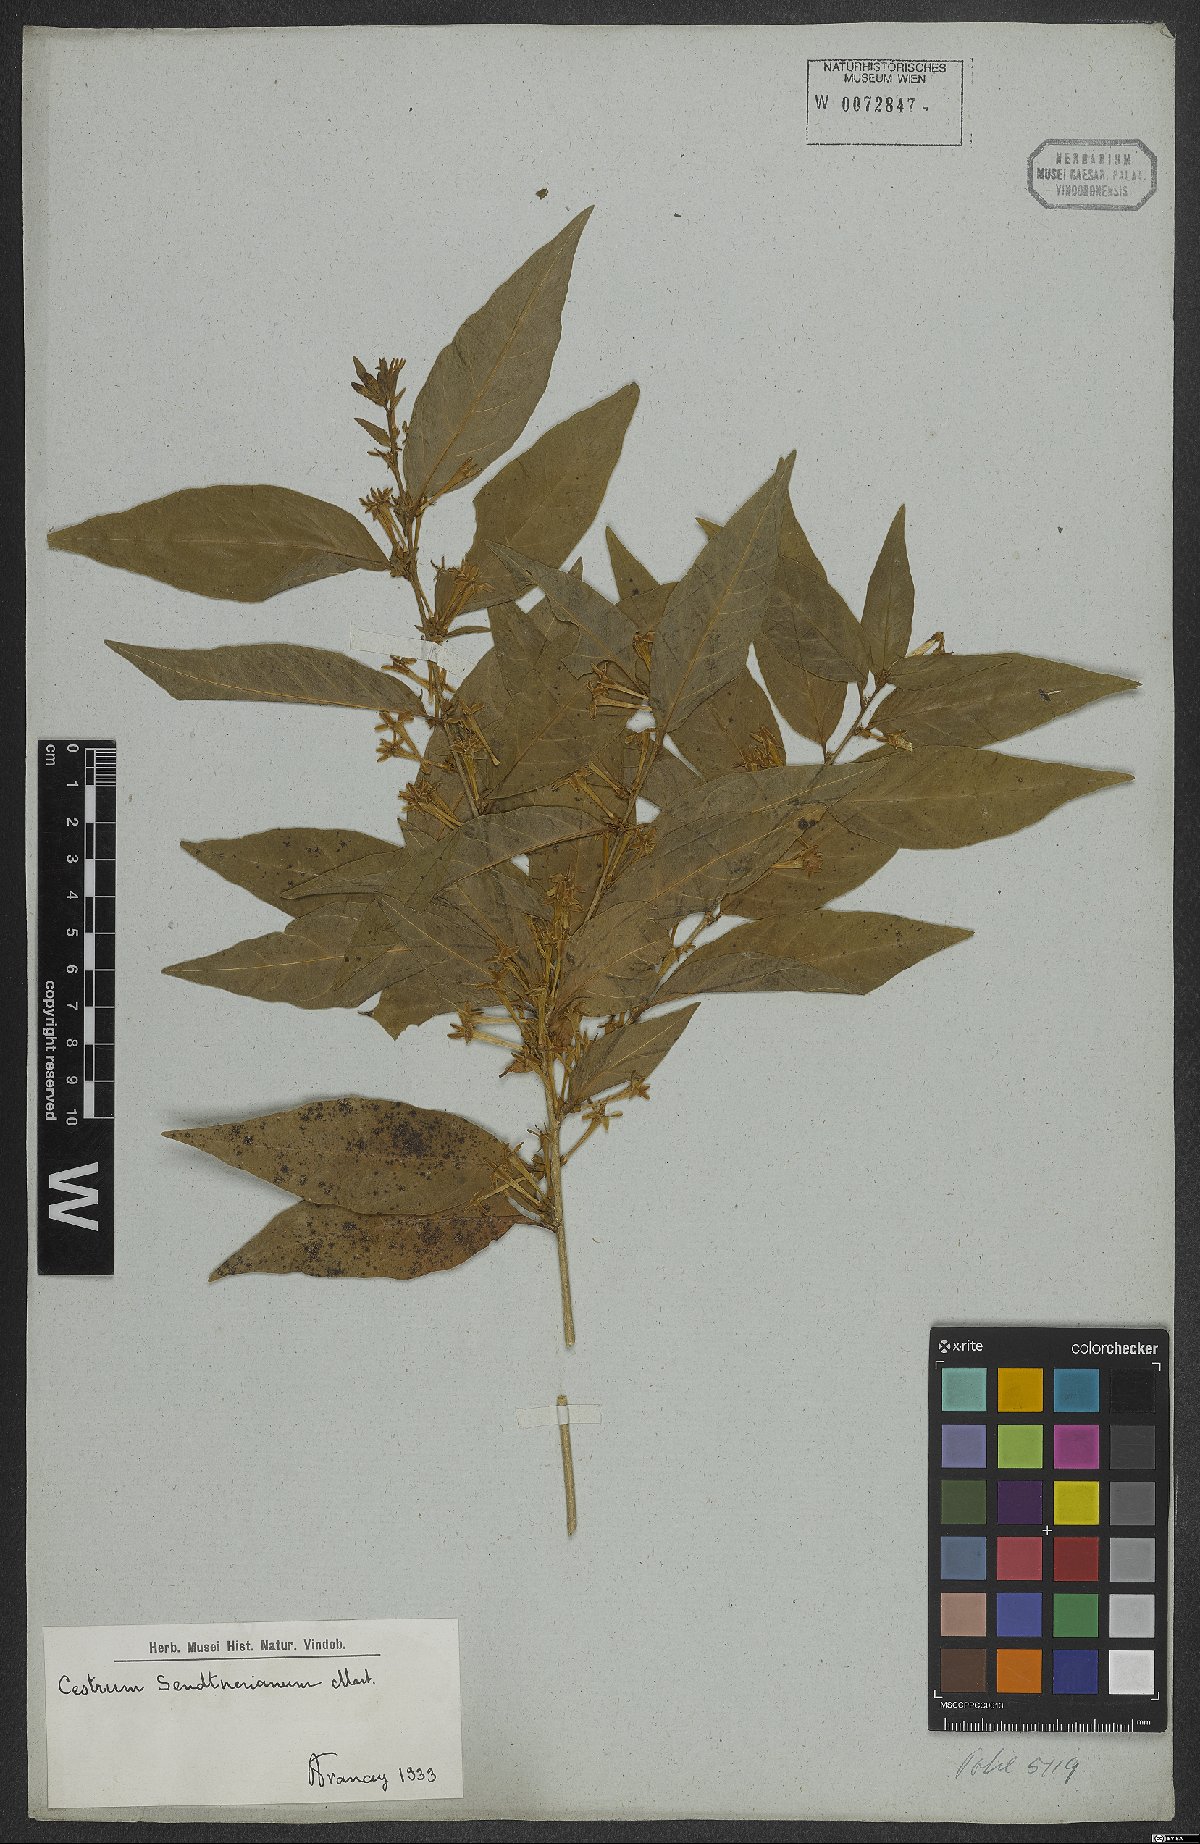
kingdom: Plantae
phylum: Tracheophyta
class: Magnoliopsida
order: Solanales
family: Solanaceae
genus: Cestrum
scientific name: Cestrum mariquitense
